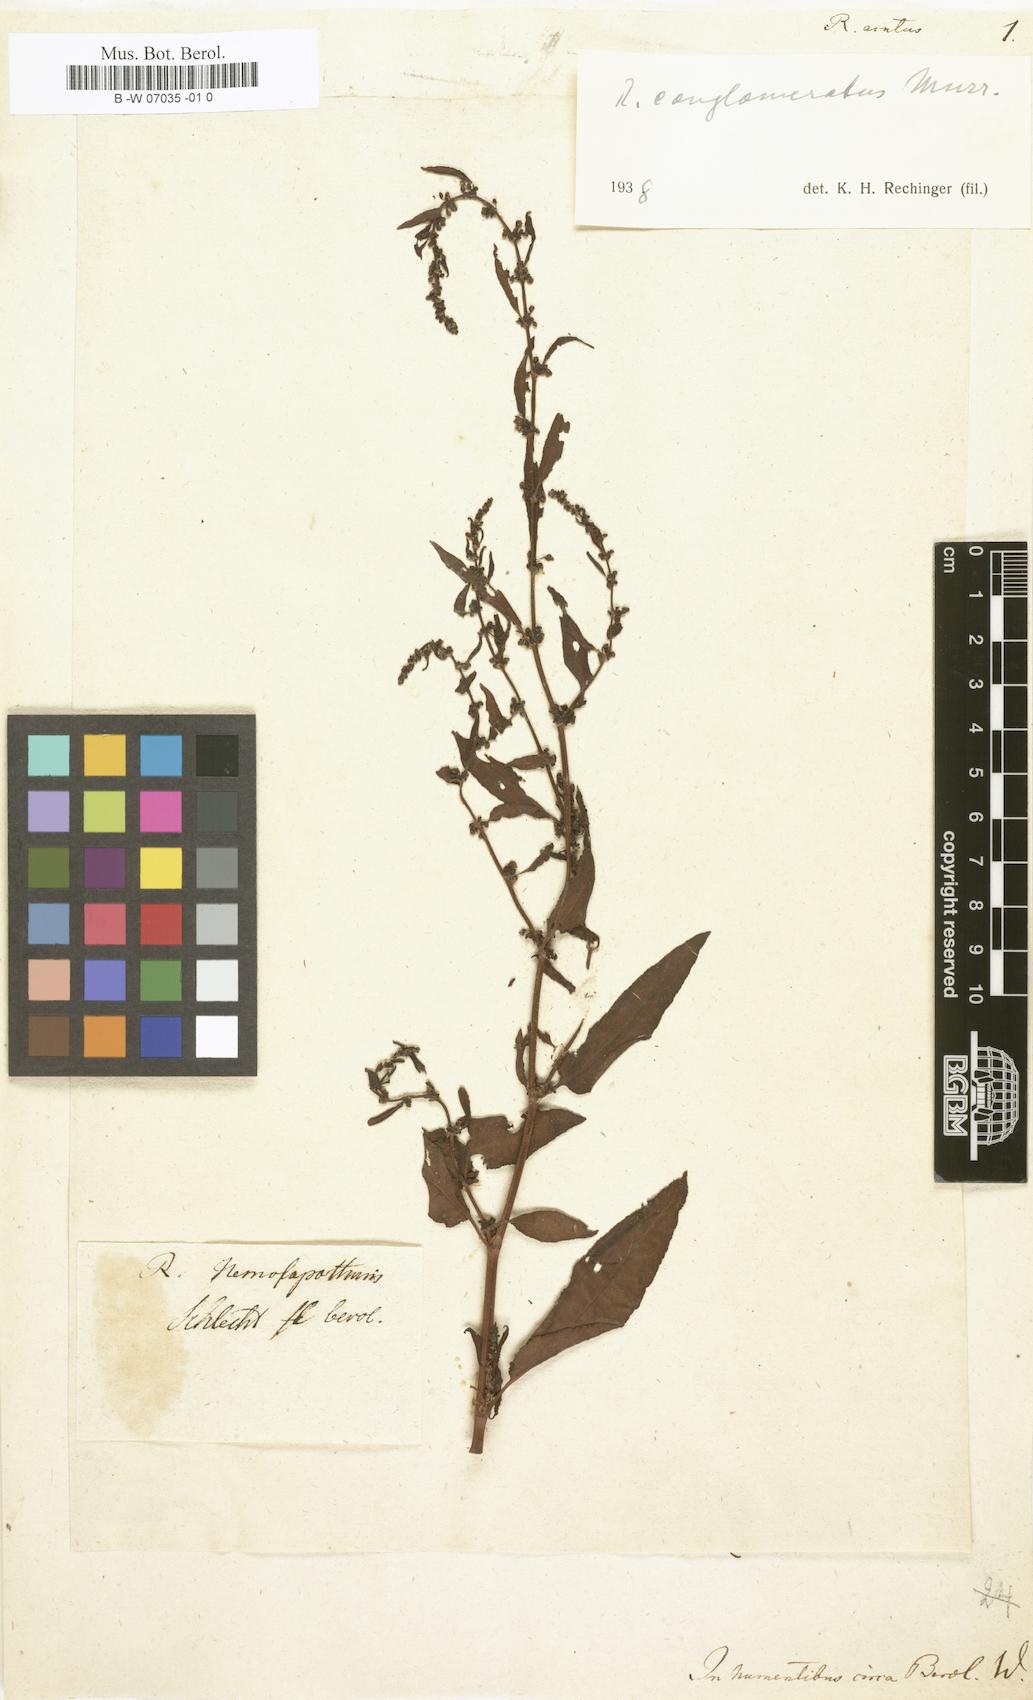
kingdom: Plantae
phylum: Tracheophyta
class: Magnoliopsida
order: Caryophyllales
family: Polygonaceae
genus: Rumex
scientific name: Rumex acutus
